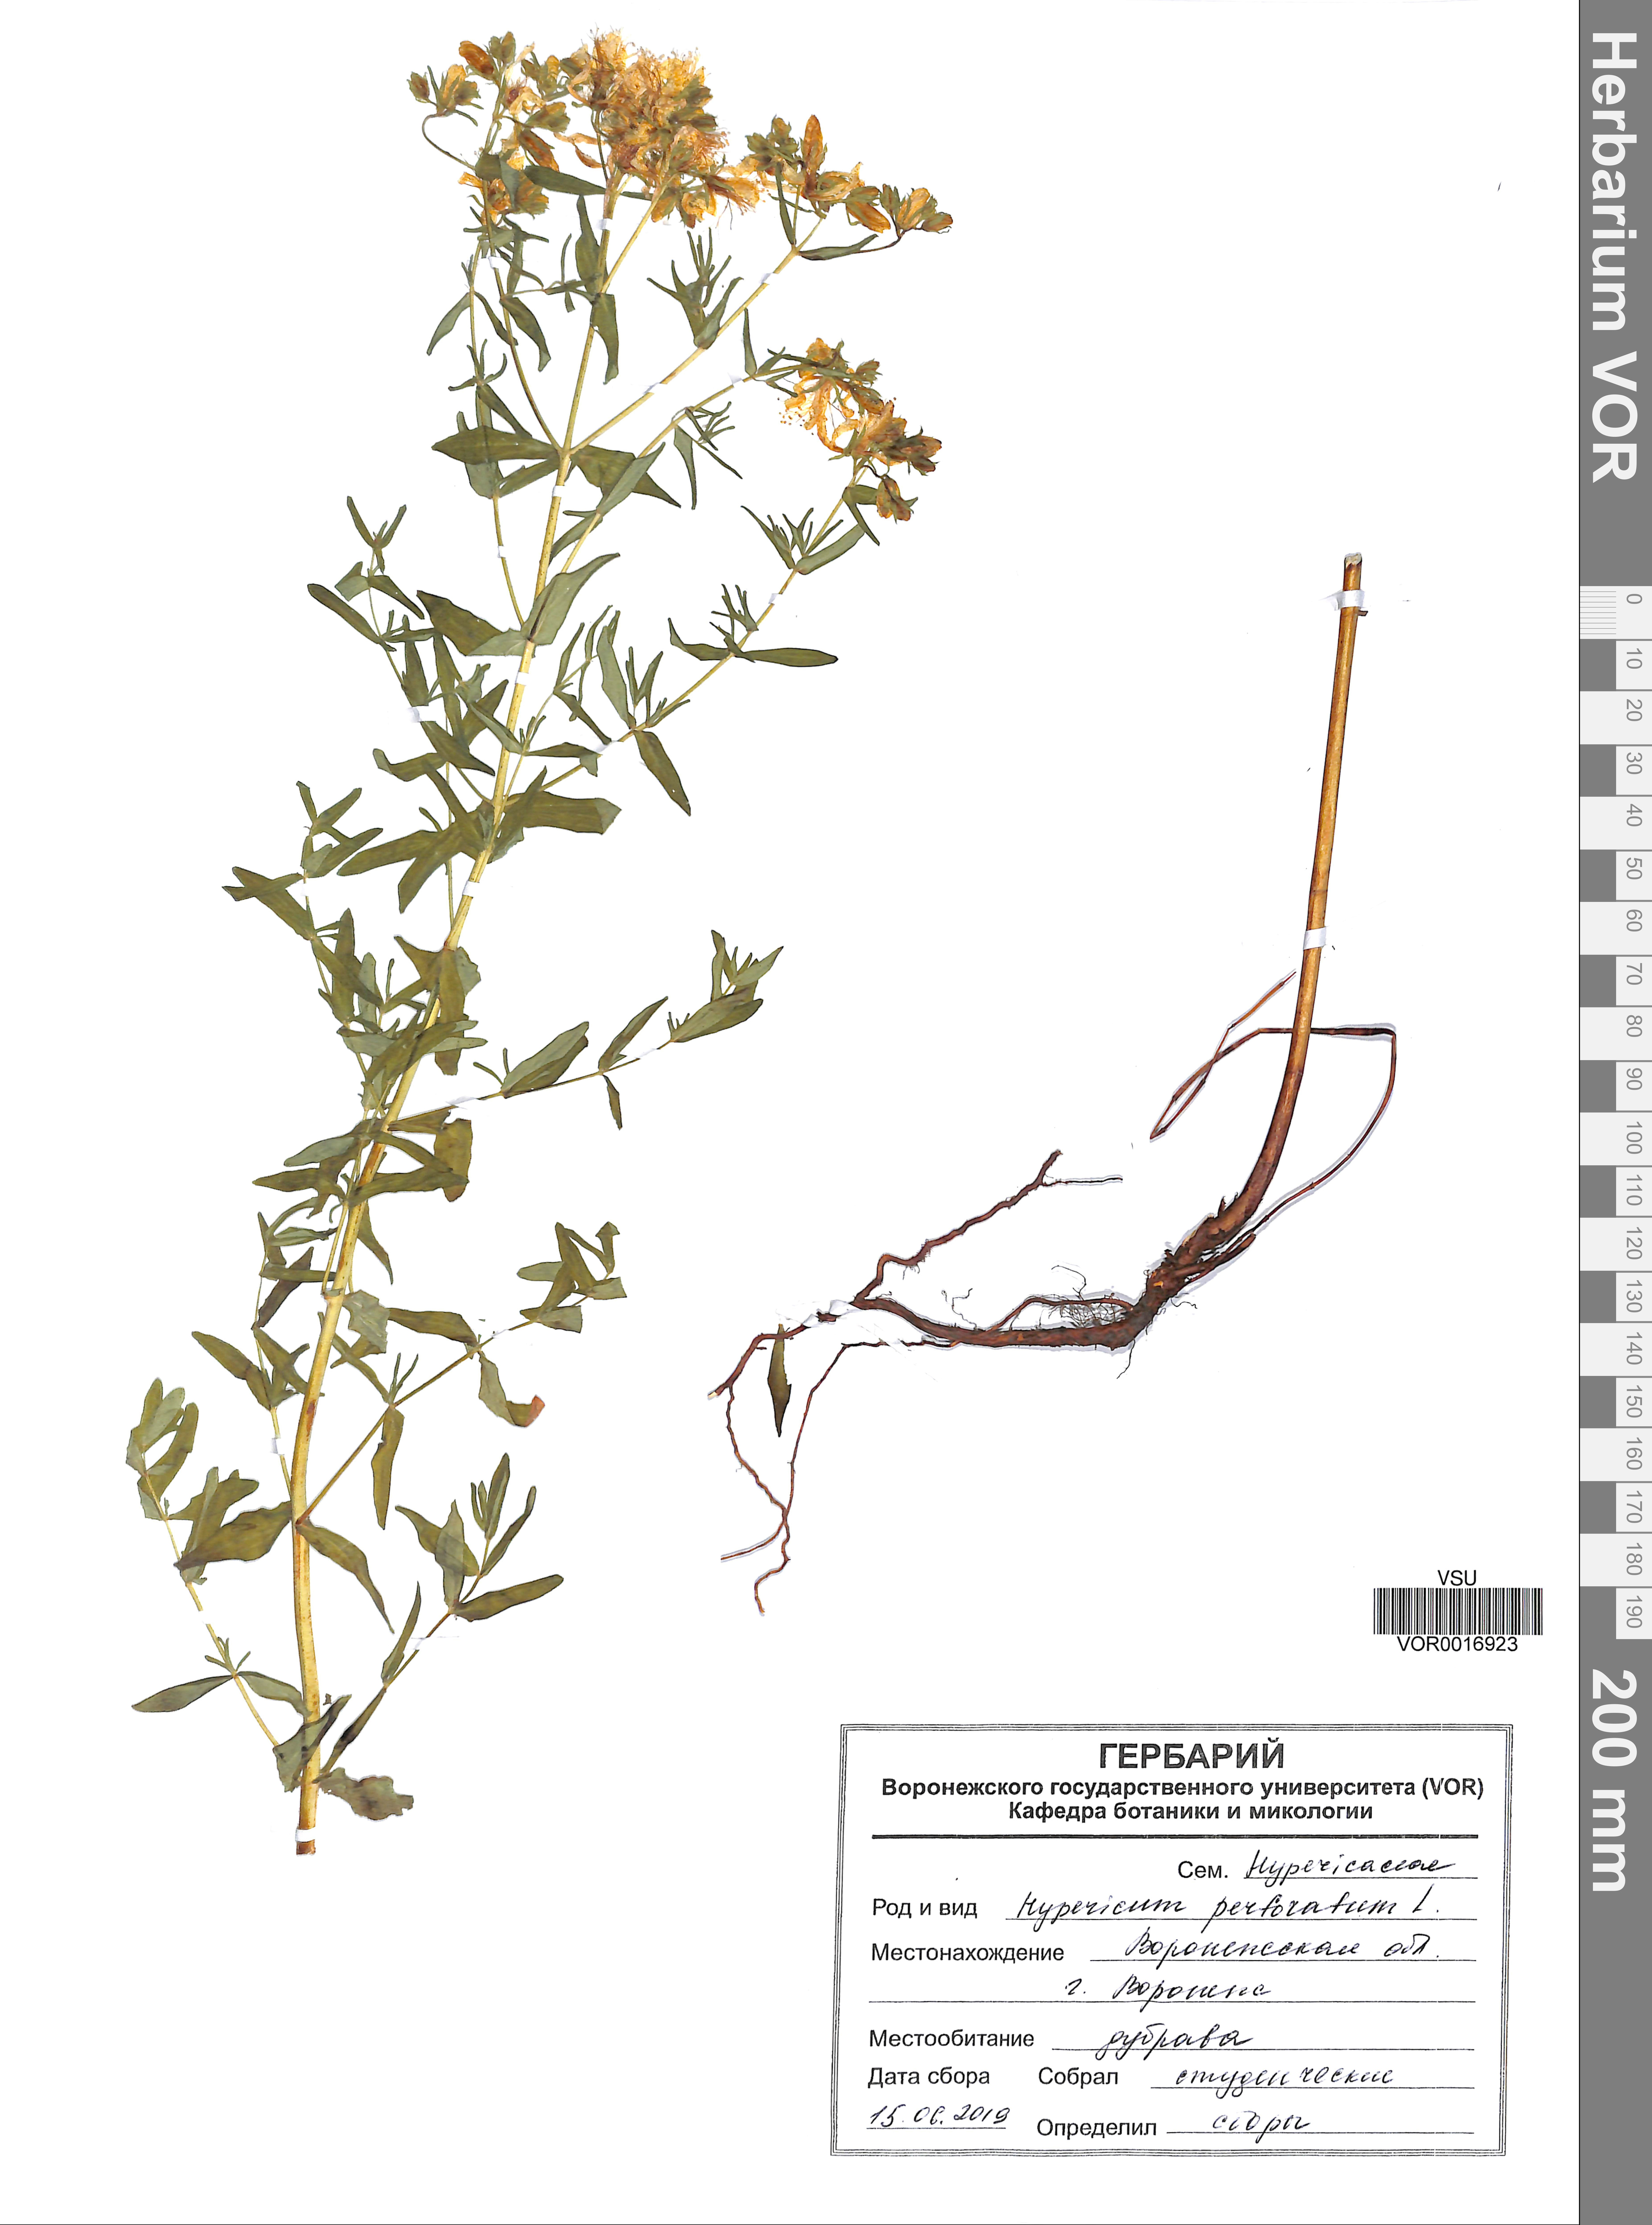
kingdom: Plantae
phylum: Tracheophyta
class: Magnoliopsida
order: Malpighiales
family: Hypericaceae
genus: Hypericum
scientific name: Hypericum perforatum
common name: Common st. johnswort
